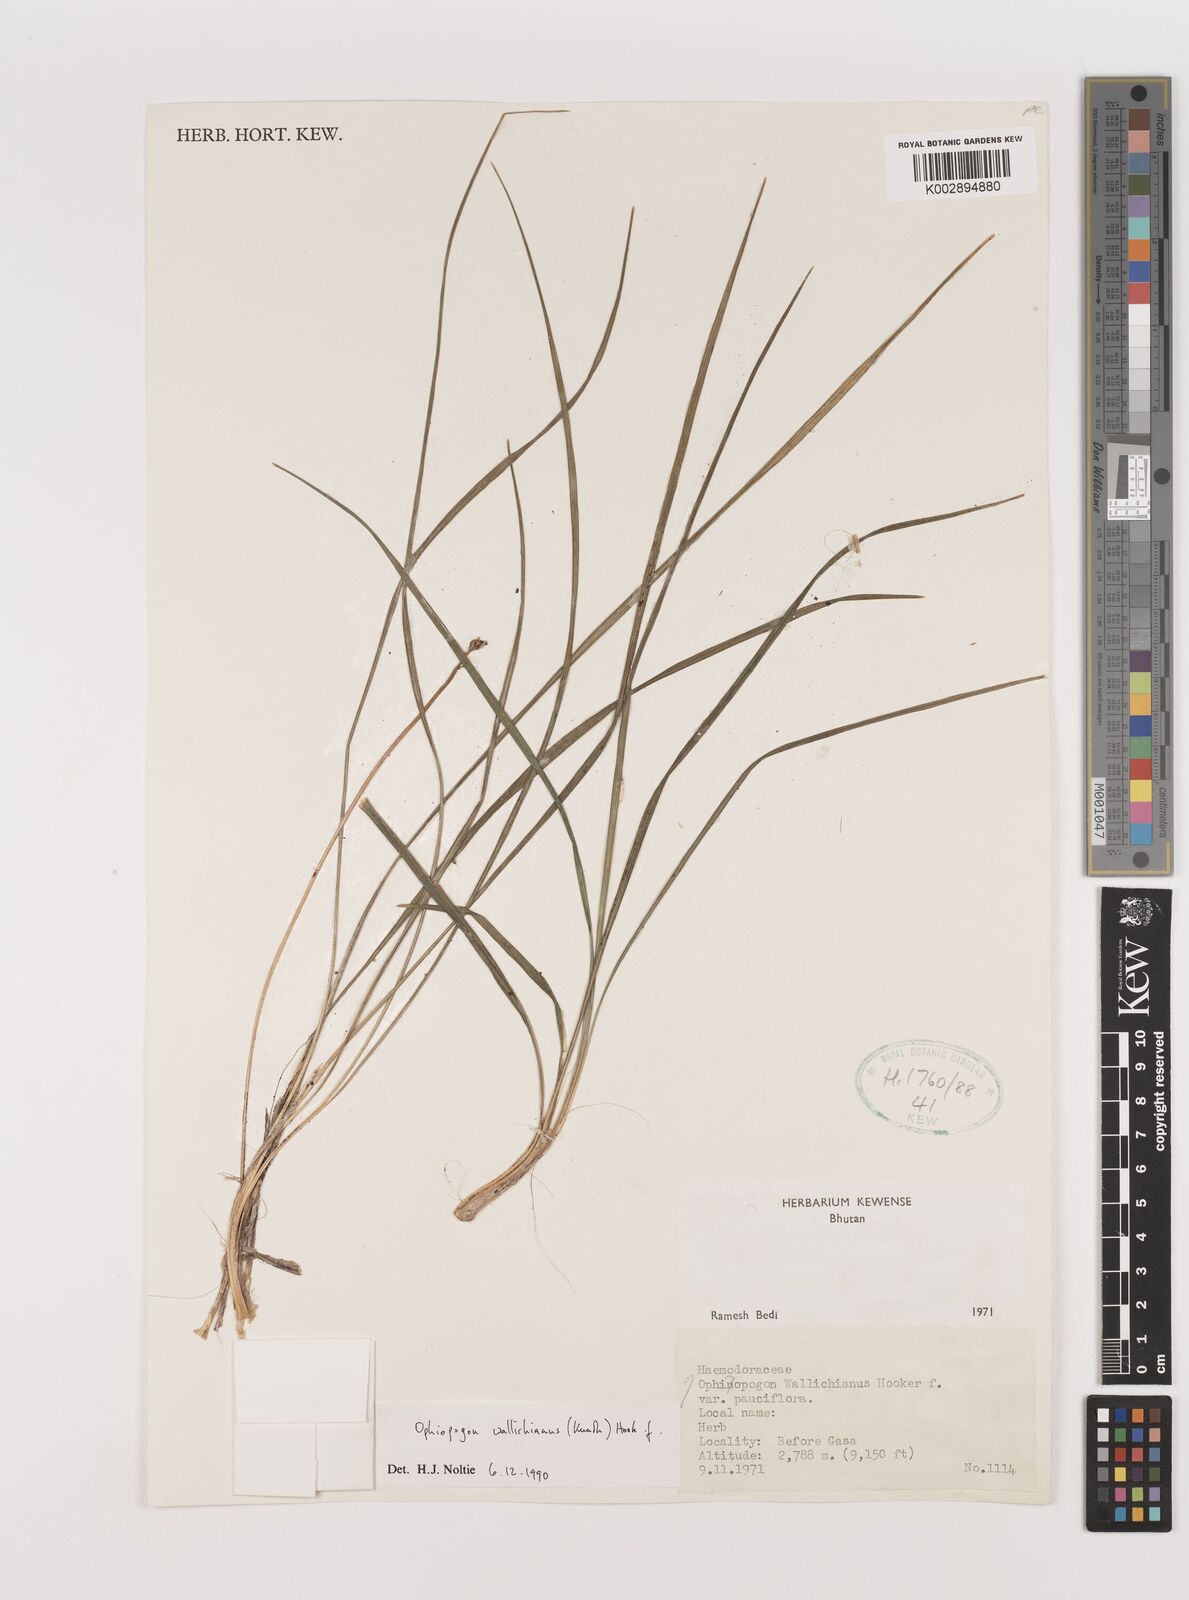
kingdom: Plantae
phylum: Tracheophyta
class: Liliopsida
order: Asparagales
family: Asparagaceae
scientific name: Asparagaceae
